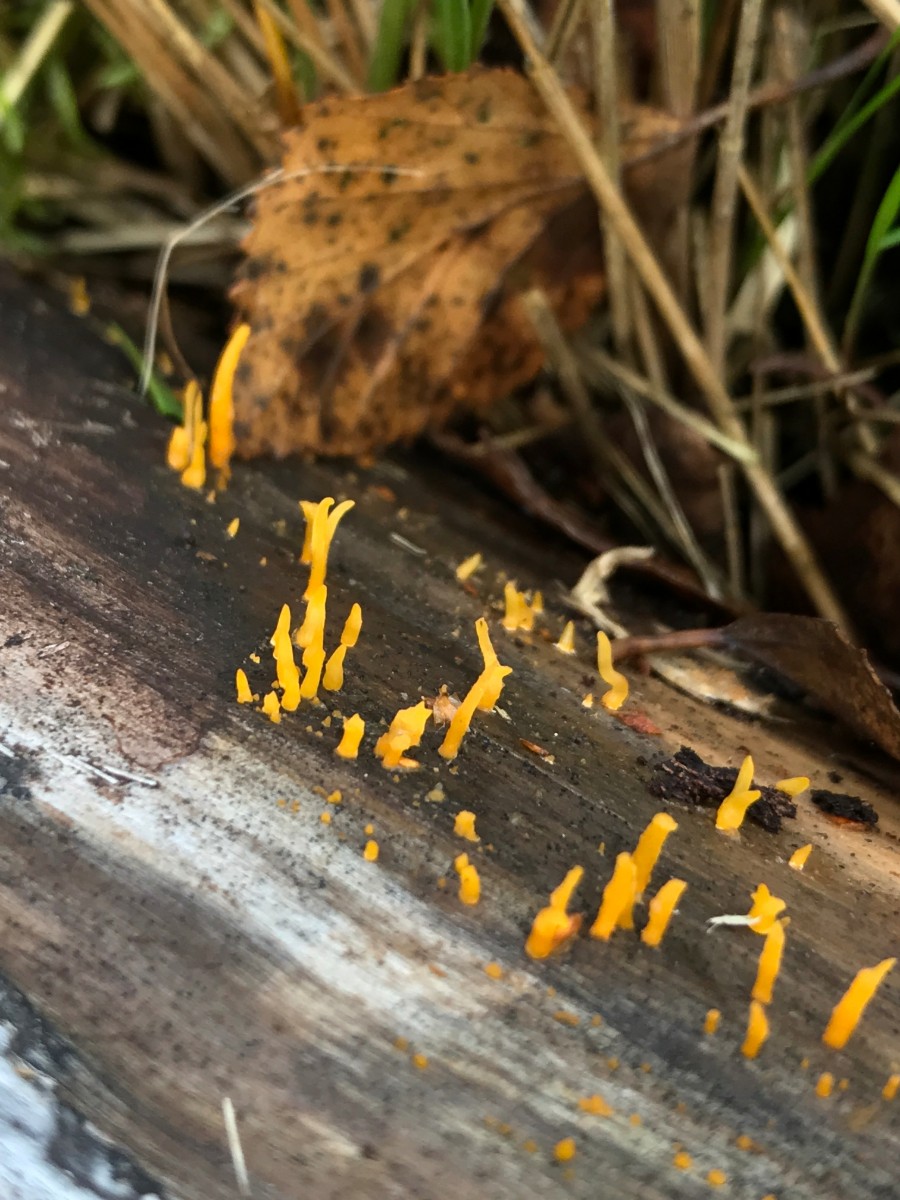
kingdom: Fungi
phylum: Basidiomycota
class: Dacrymycetes
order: Dacrymycetales
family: Dacrymycetaceae
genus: Calocera
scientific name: Calocera cornea
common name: liden guldgaffel
